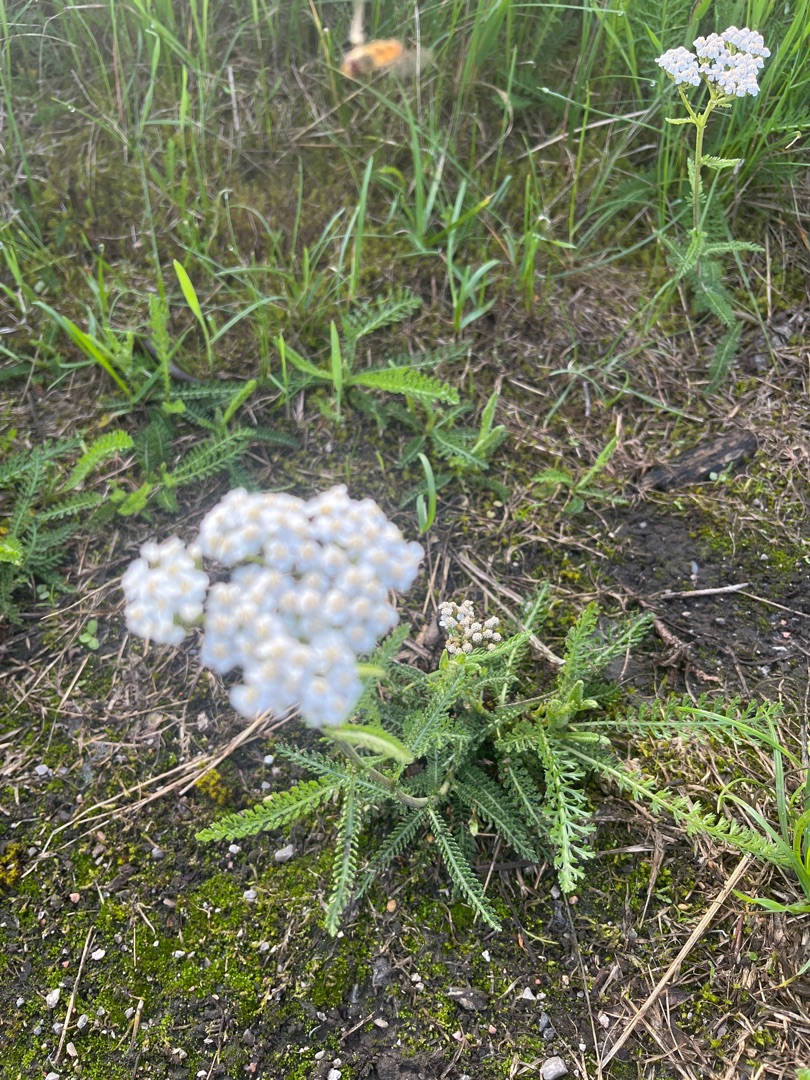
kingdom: Plantae
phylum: Tracheophyta
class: Magnoliopsida
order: Asterales
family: Asteraceae
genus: Achillea
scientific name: Achillea millefolium
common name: Almindelig røllike
